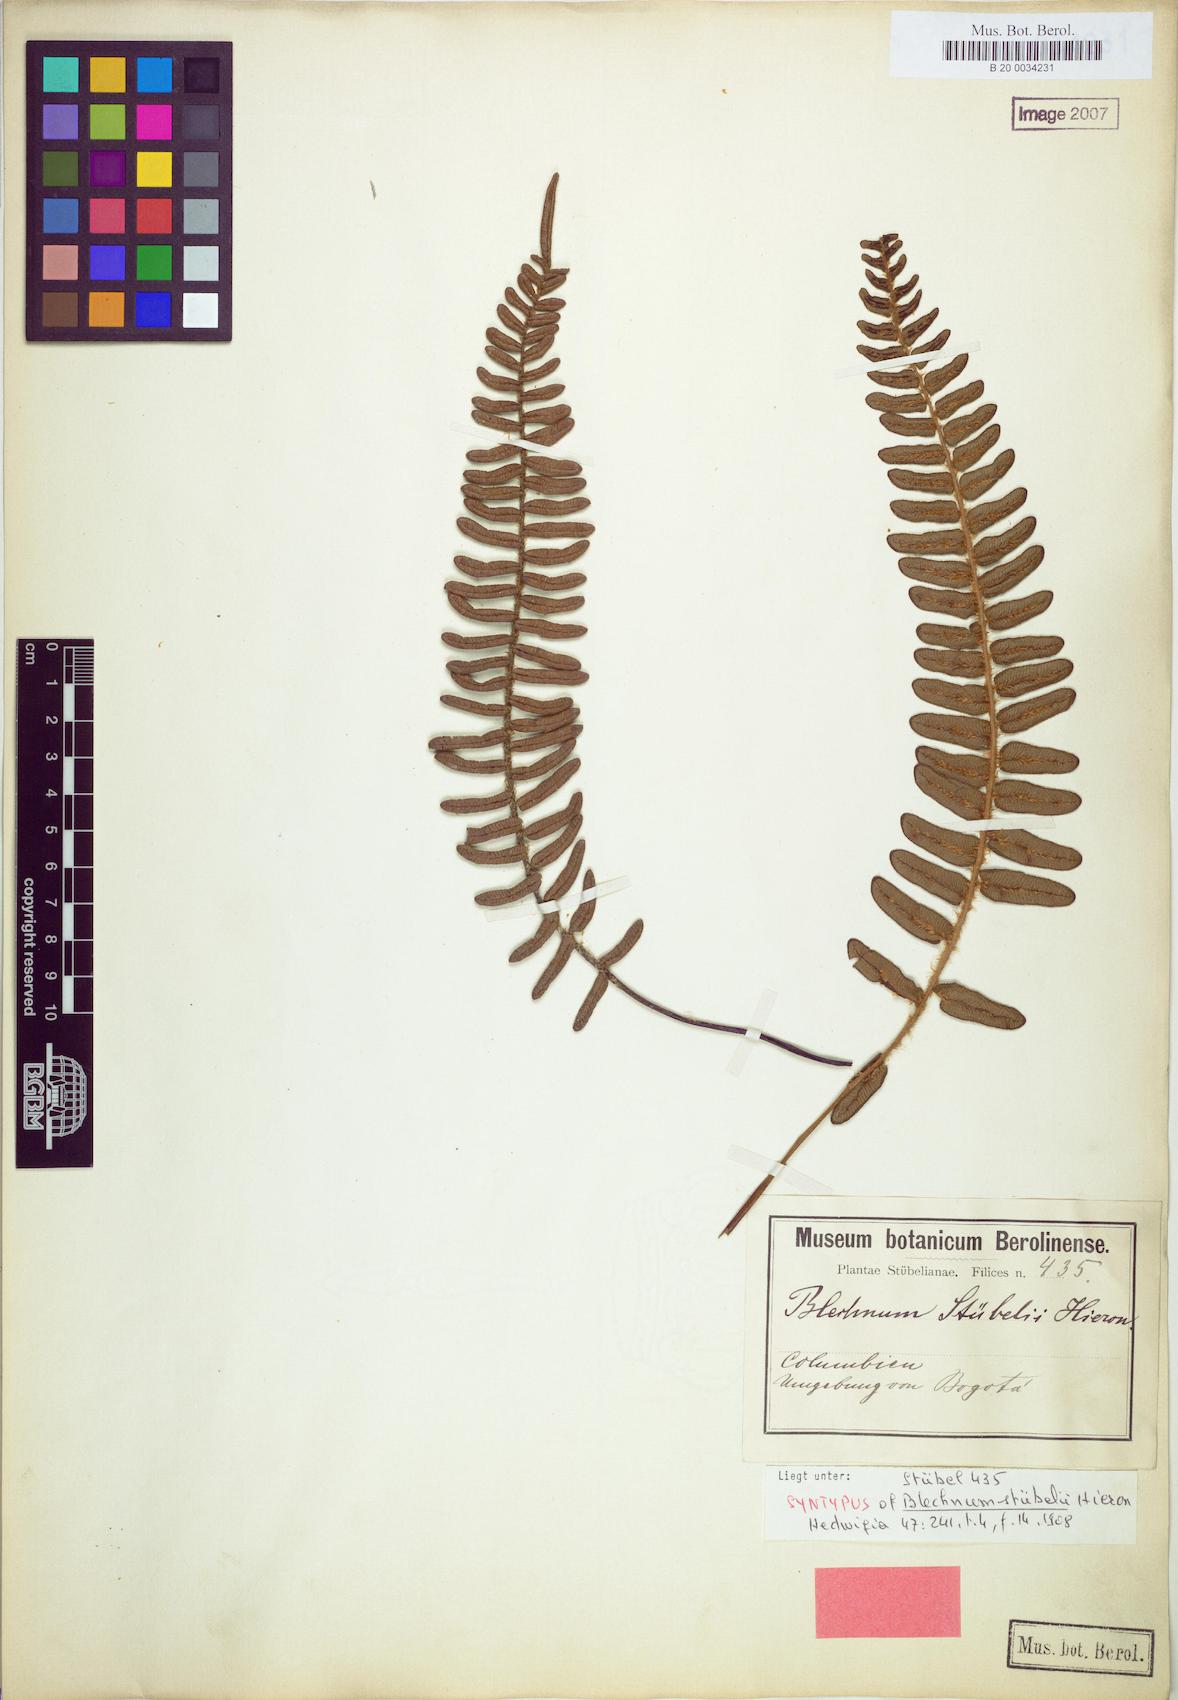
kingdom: Plantae
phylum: Tracheophyta
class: Polypodiopsida
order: Polypodiales
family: Blechnaceae
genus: Parablechnum
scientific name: Parablechnum stuebelii
